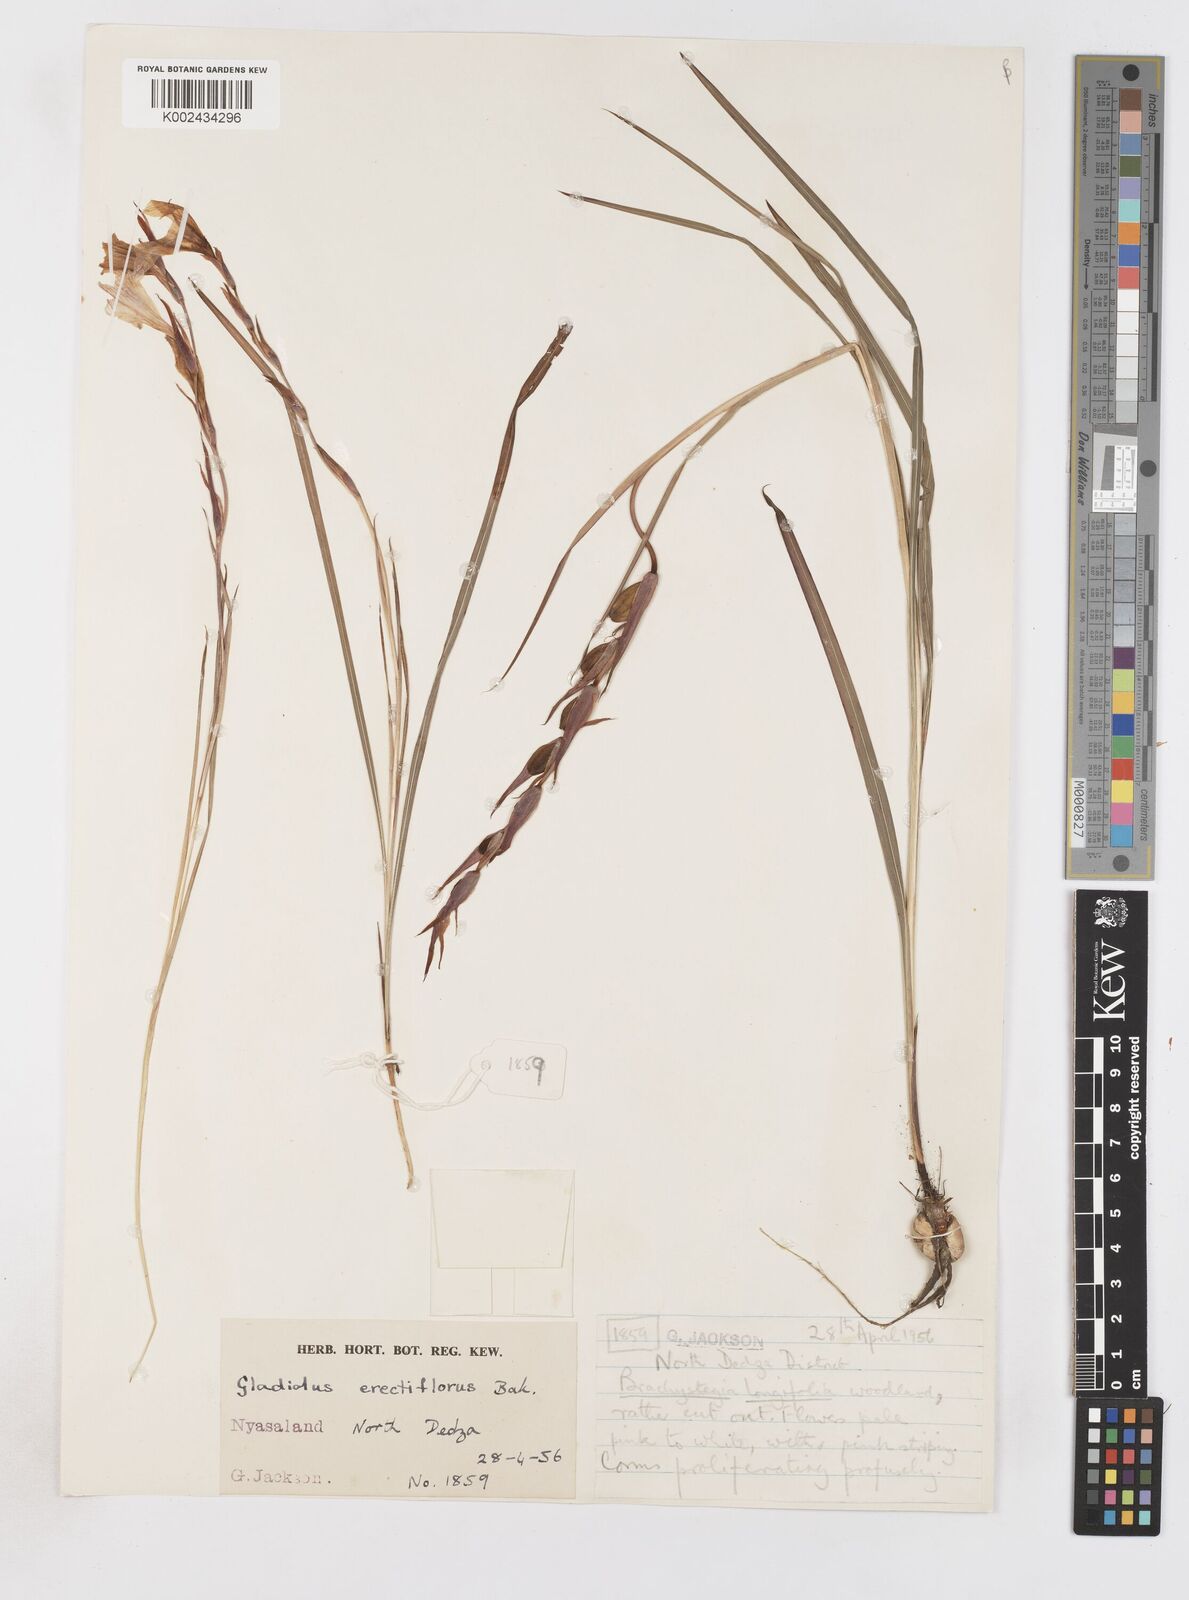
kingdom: Plantae
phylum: Tracheophyta
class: Liliopsida
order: Asparagales
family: Iridaceae
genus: Gladiolus
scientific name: Gladiolus erectiflorus
